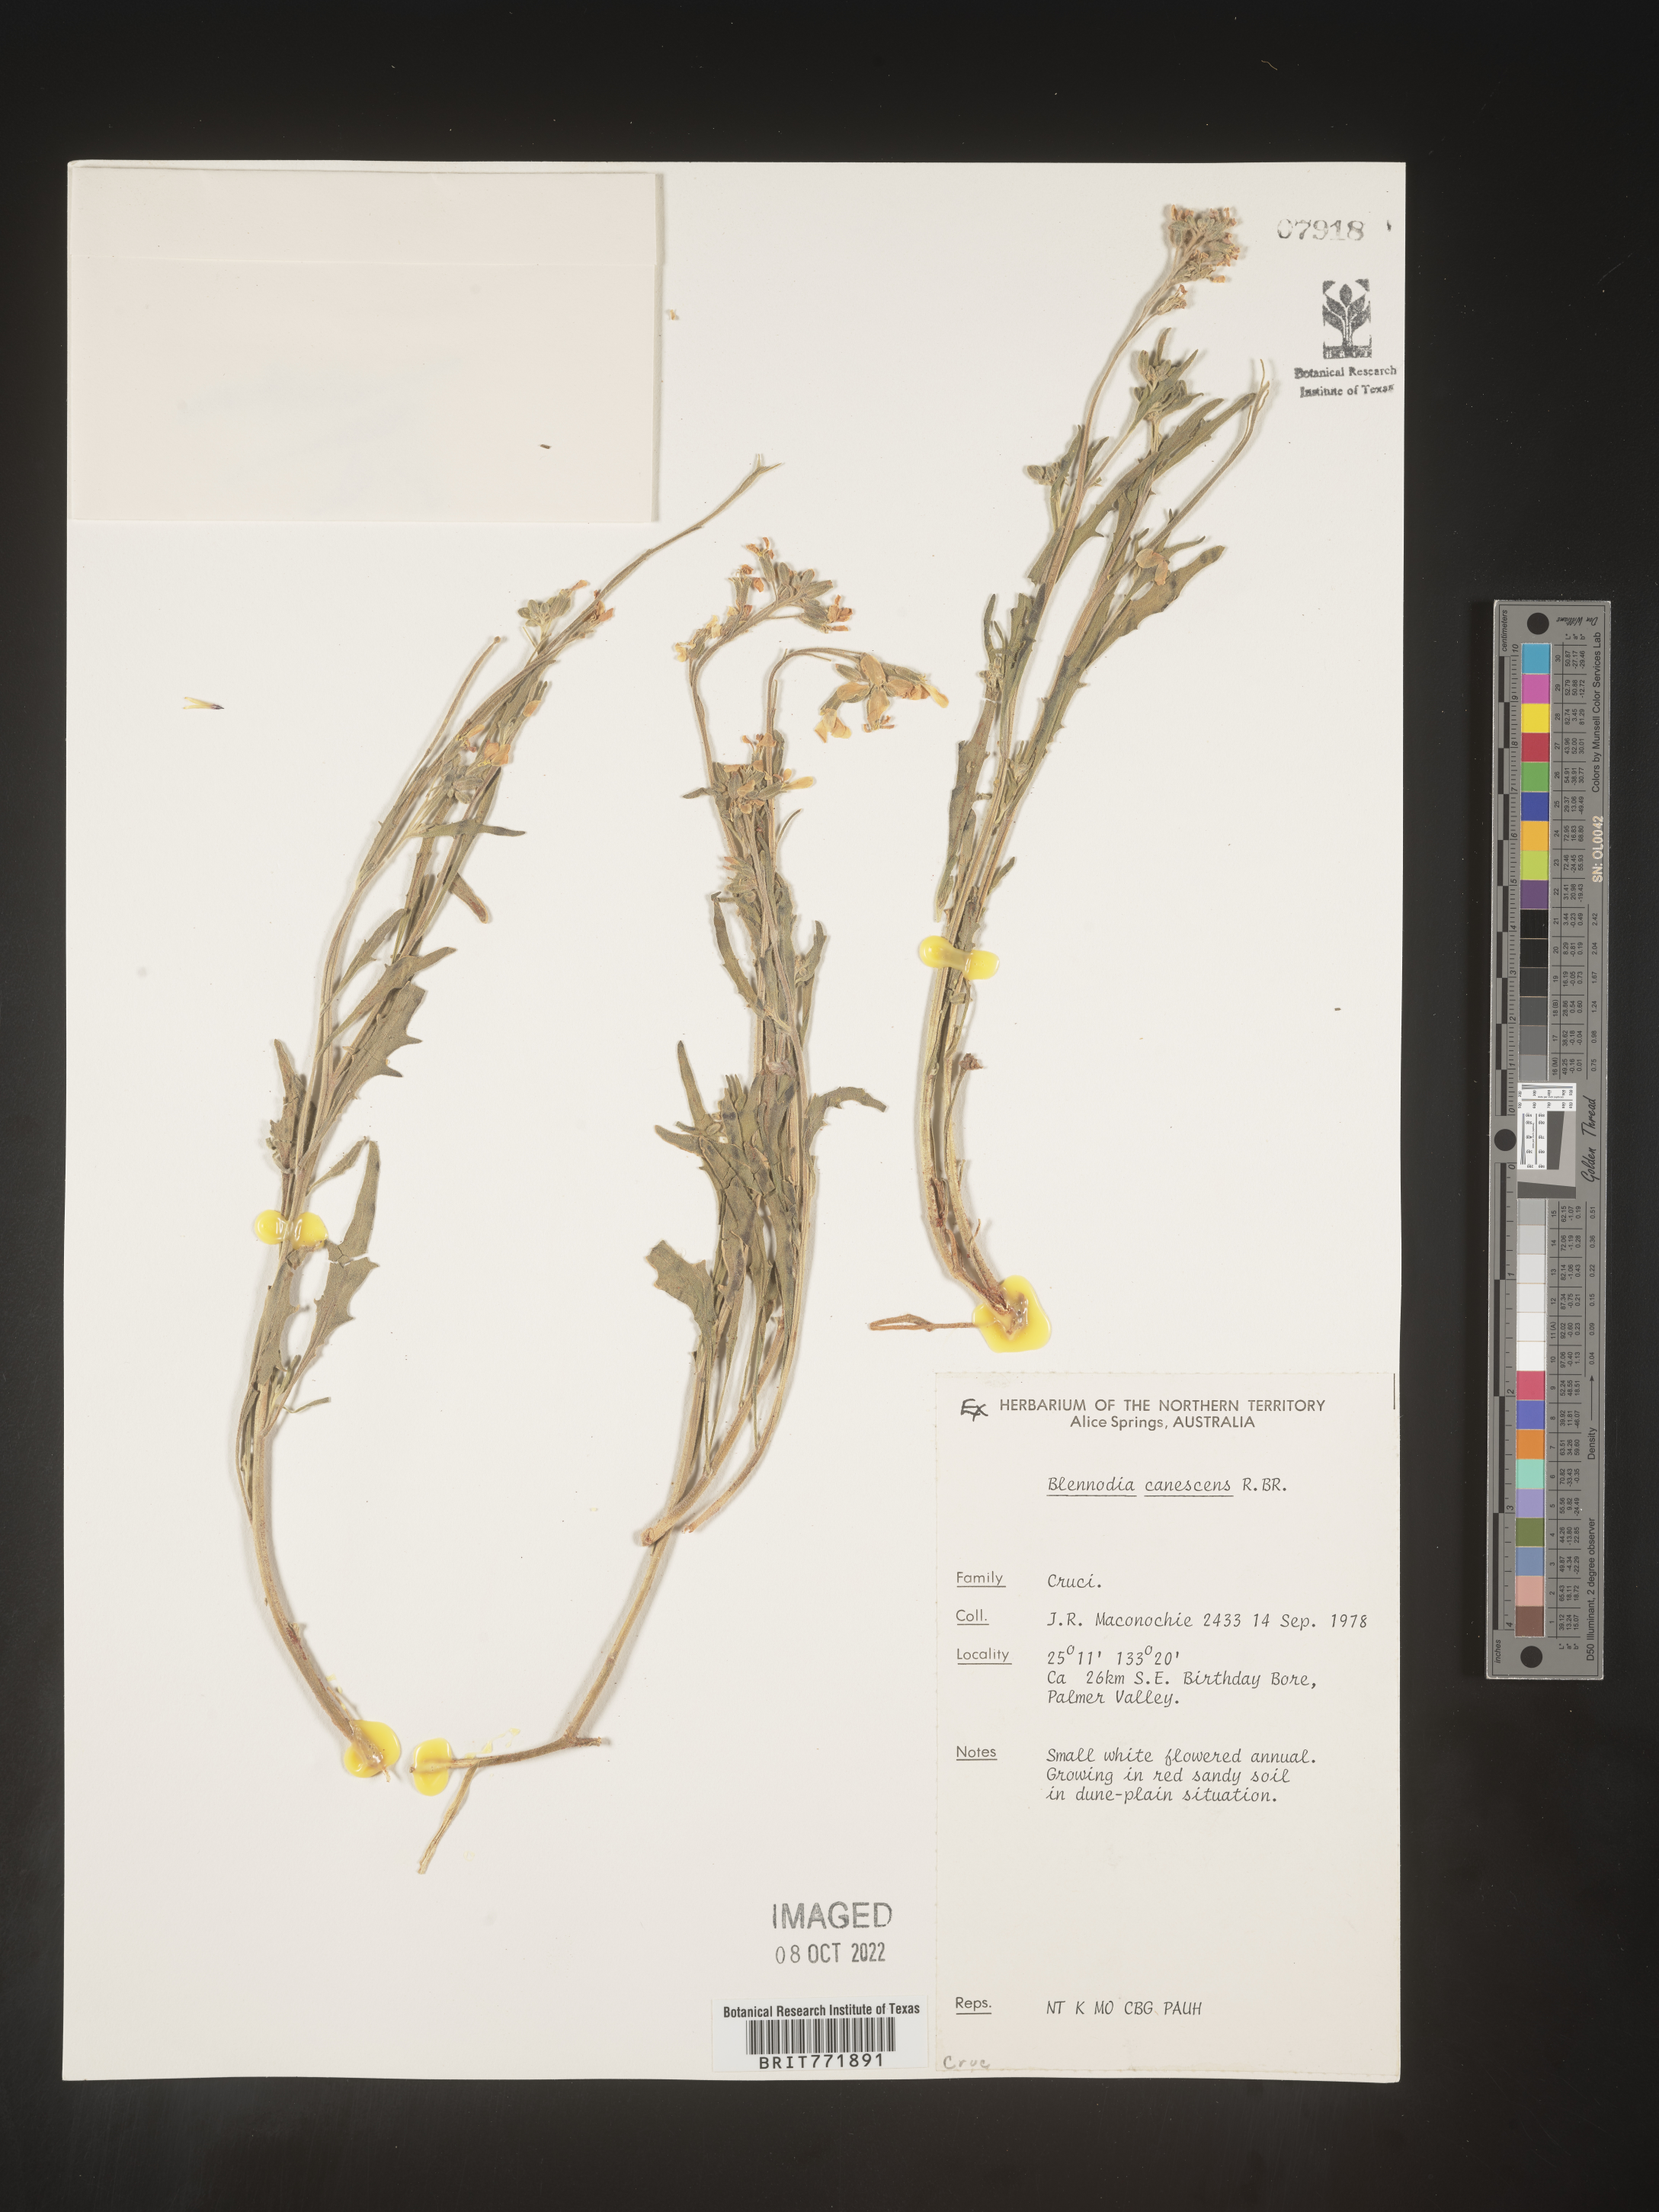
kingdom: Plantae
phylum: Tracheophyta
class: Magnoliopsida
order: Brassicales
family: Brassicaceae
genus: Blennodia
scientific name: Blennodia
